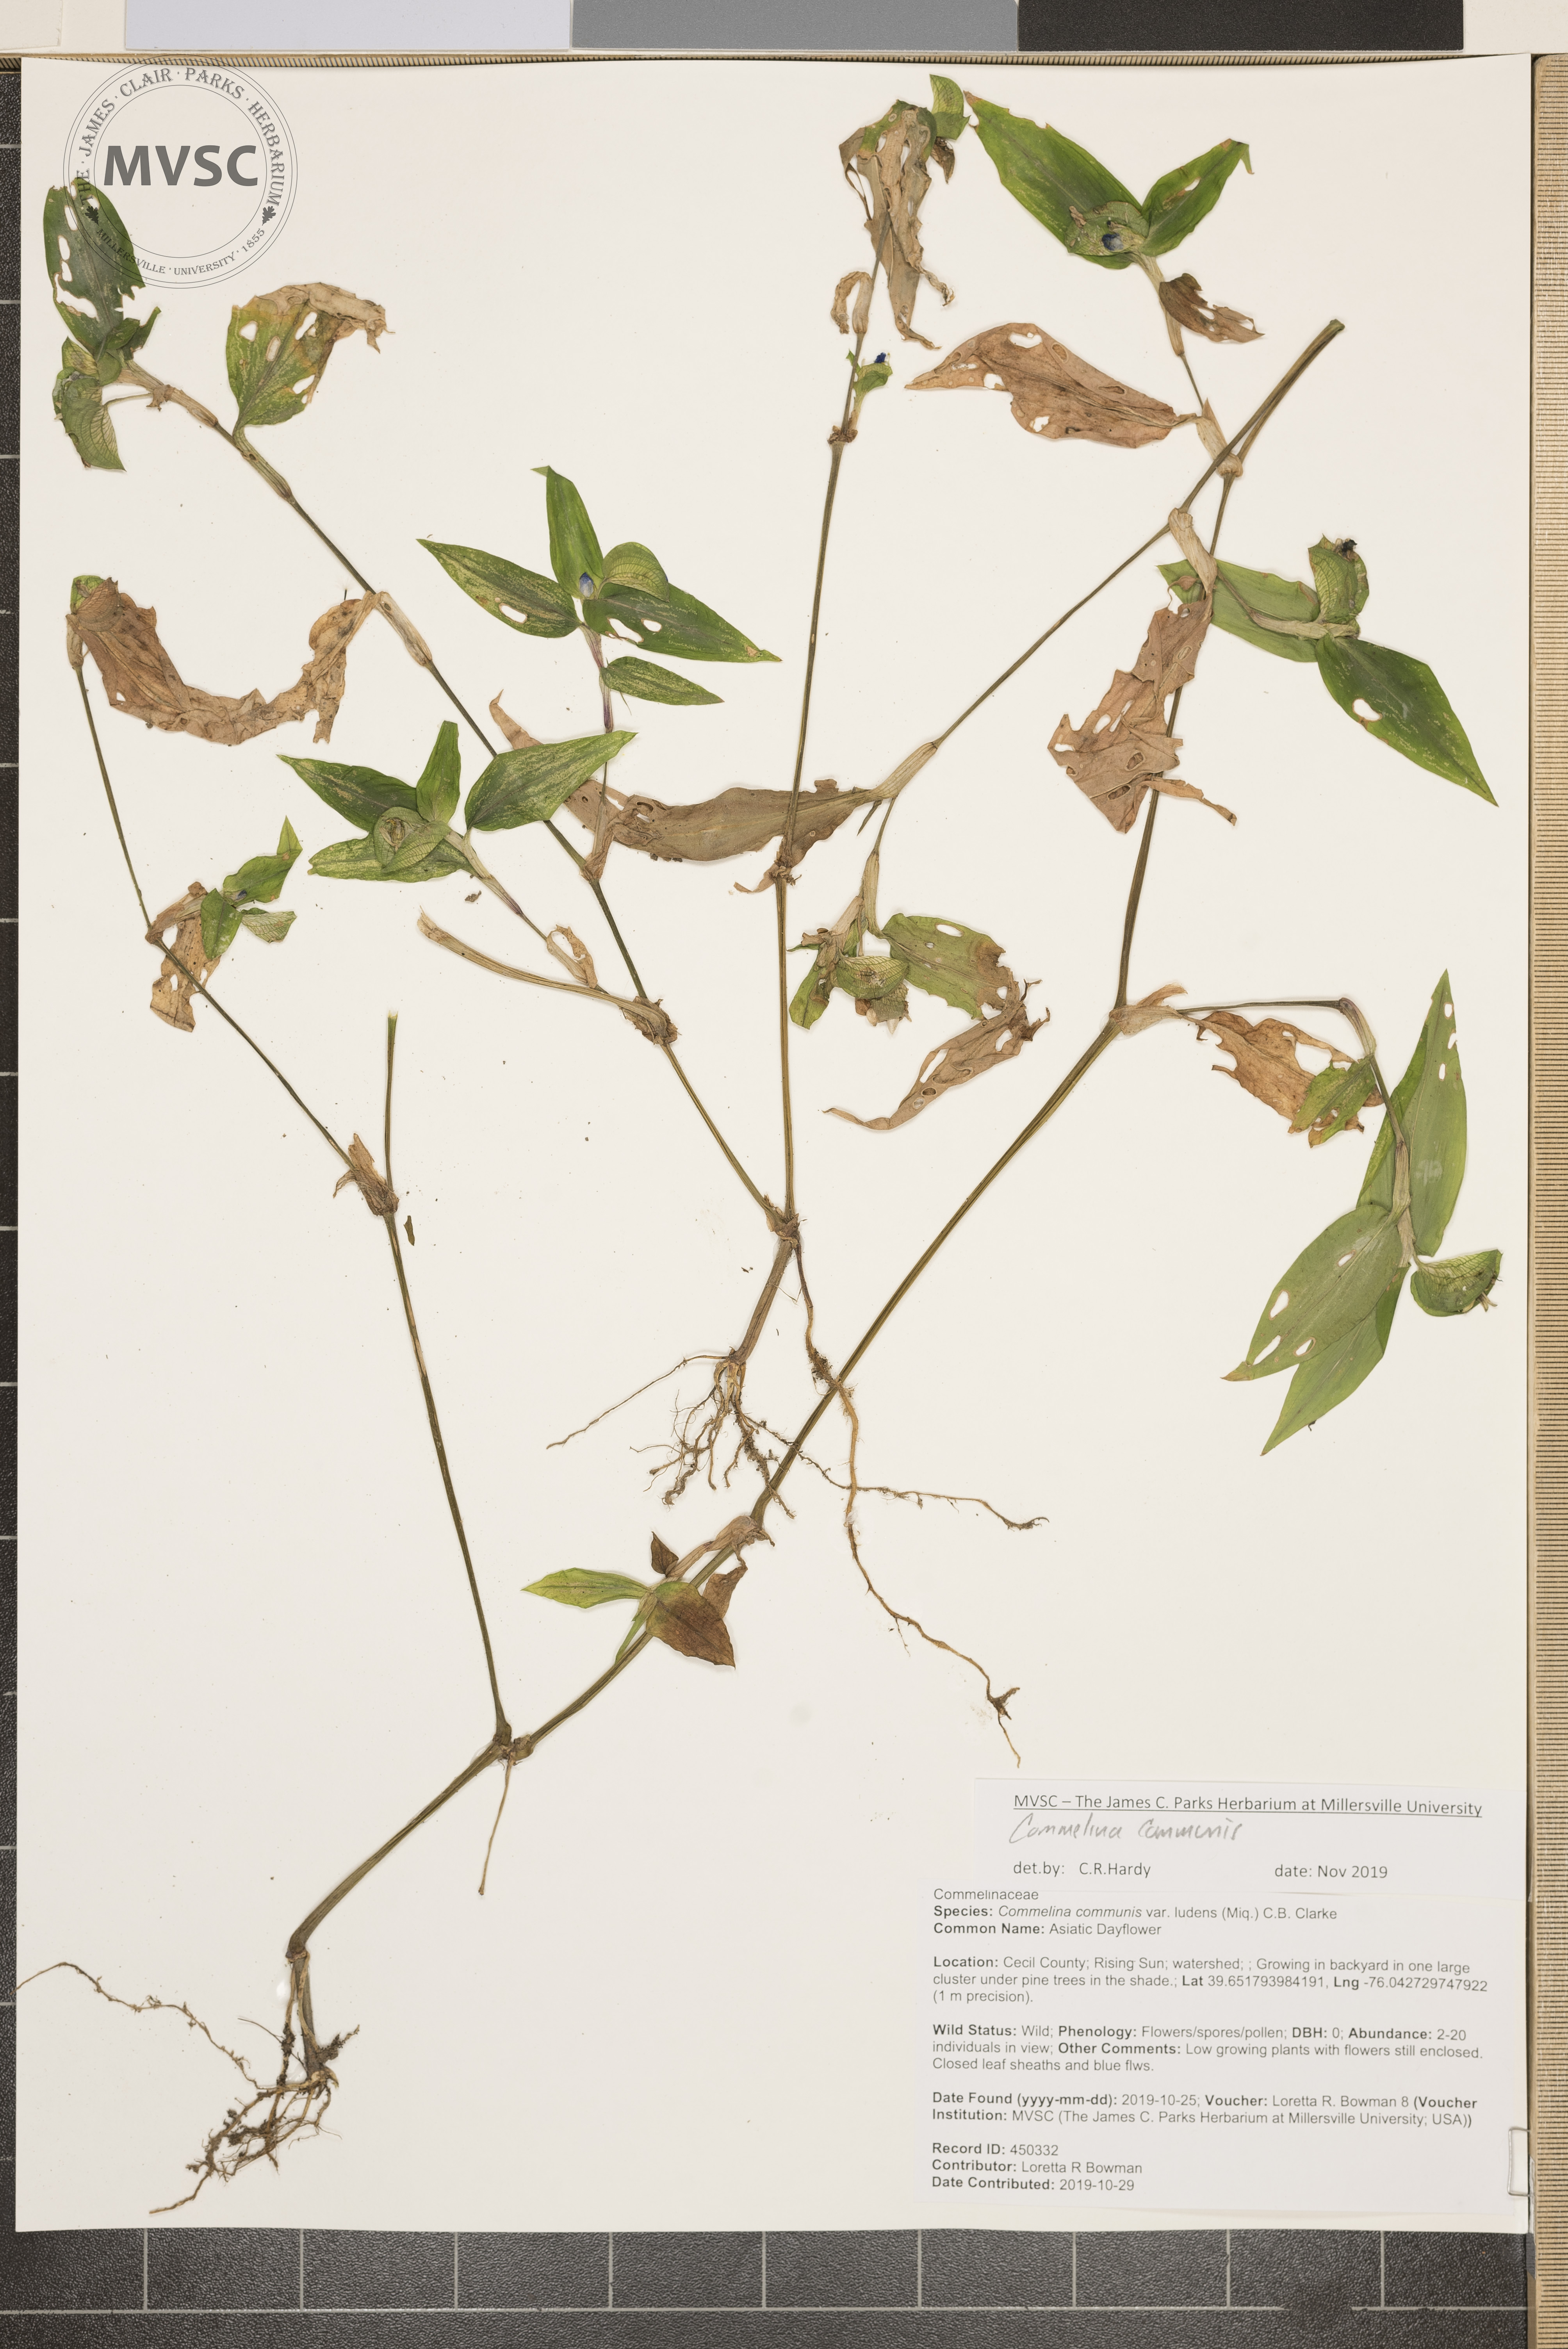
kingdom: Plantae
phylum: Tracheophyta
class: Liliopsida
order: Commelinales
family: Commelinaceae
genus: Commelina
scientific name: Commelina communis
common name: Asiatic Dayflower
